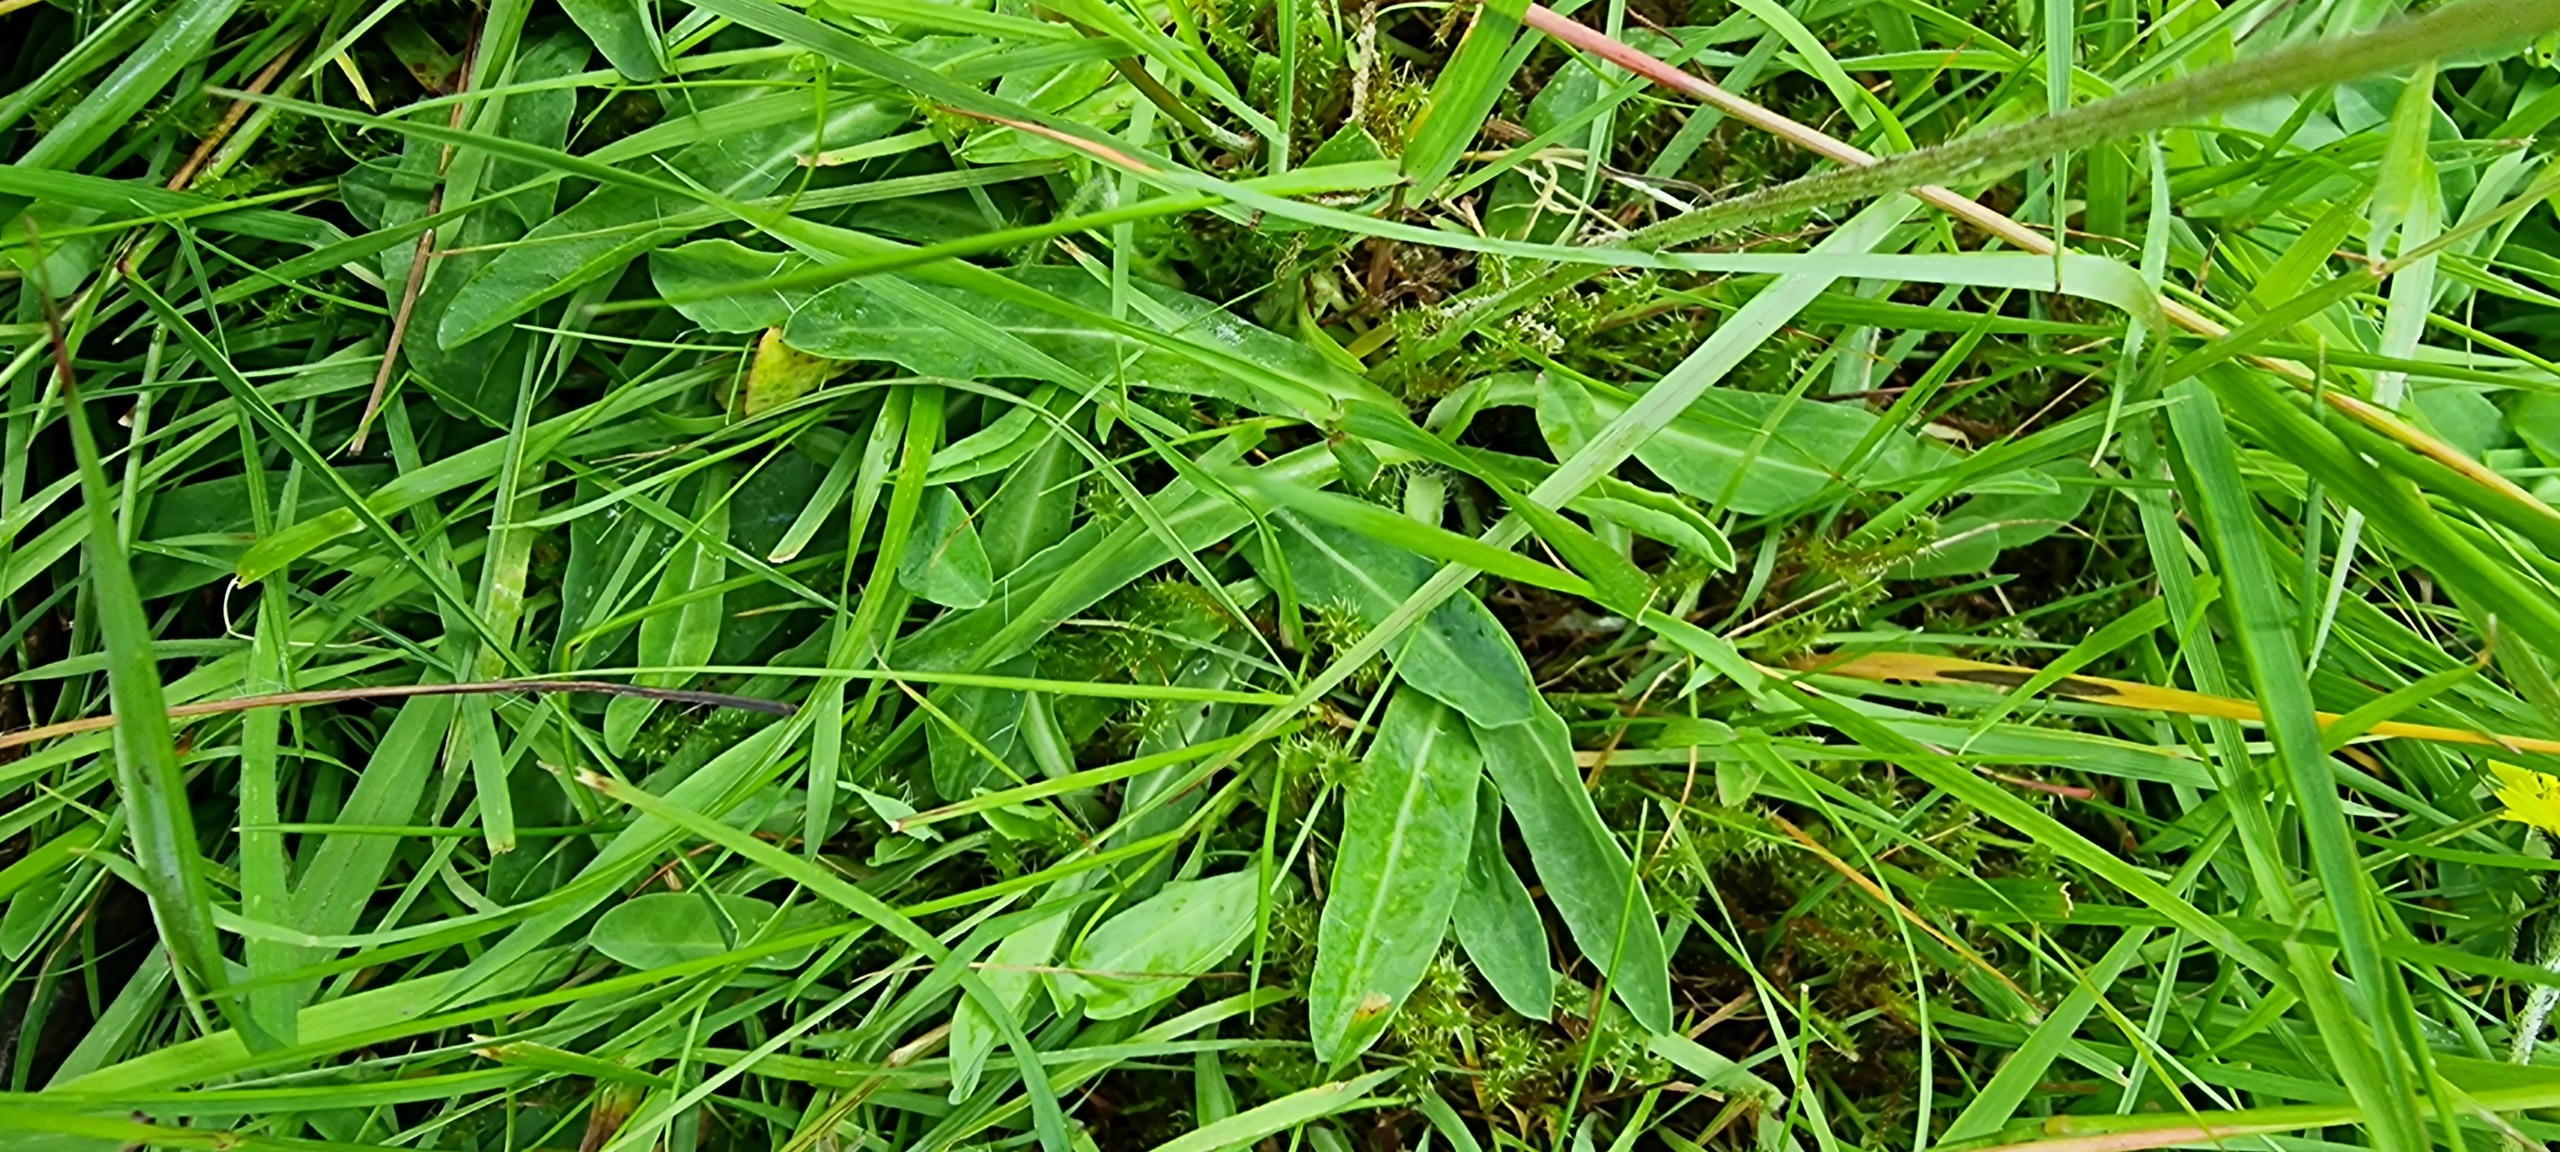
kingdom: Plantae
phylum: Tracheophyta
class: Magnoliopsida
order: Asterales
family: Asteraceae
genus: Pilosella
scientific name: Pilosella lactucella
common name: Lancetbladet høgeurt
